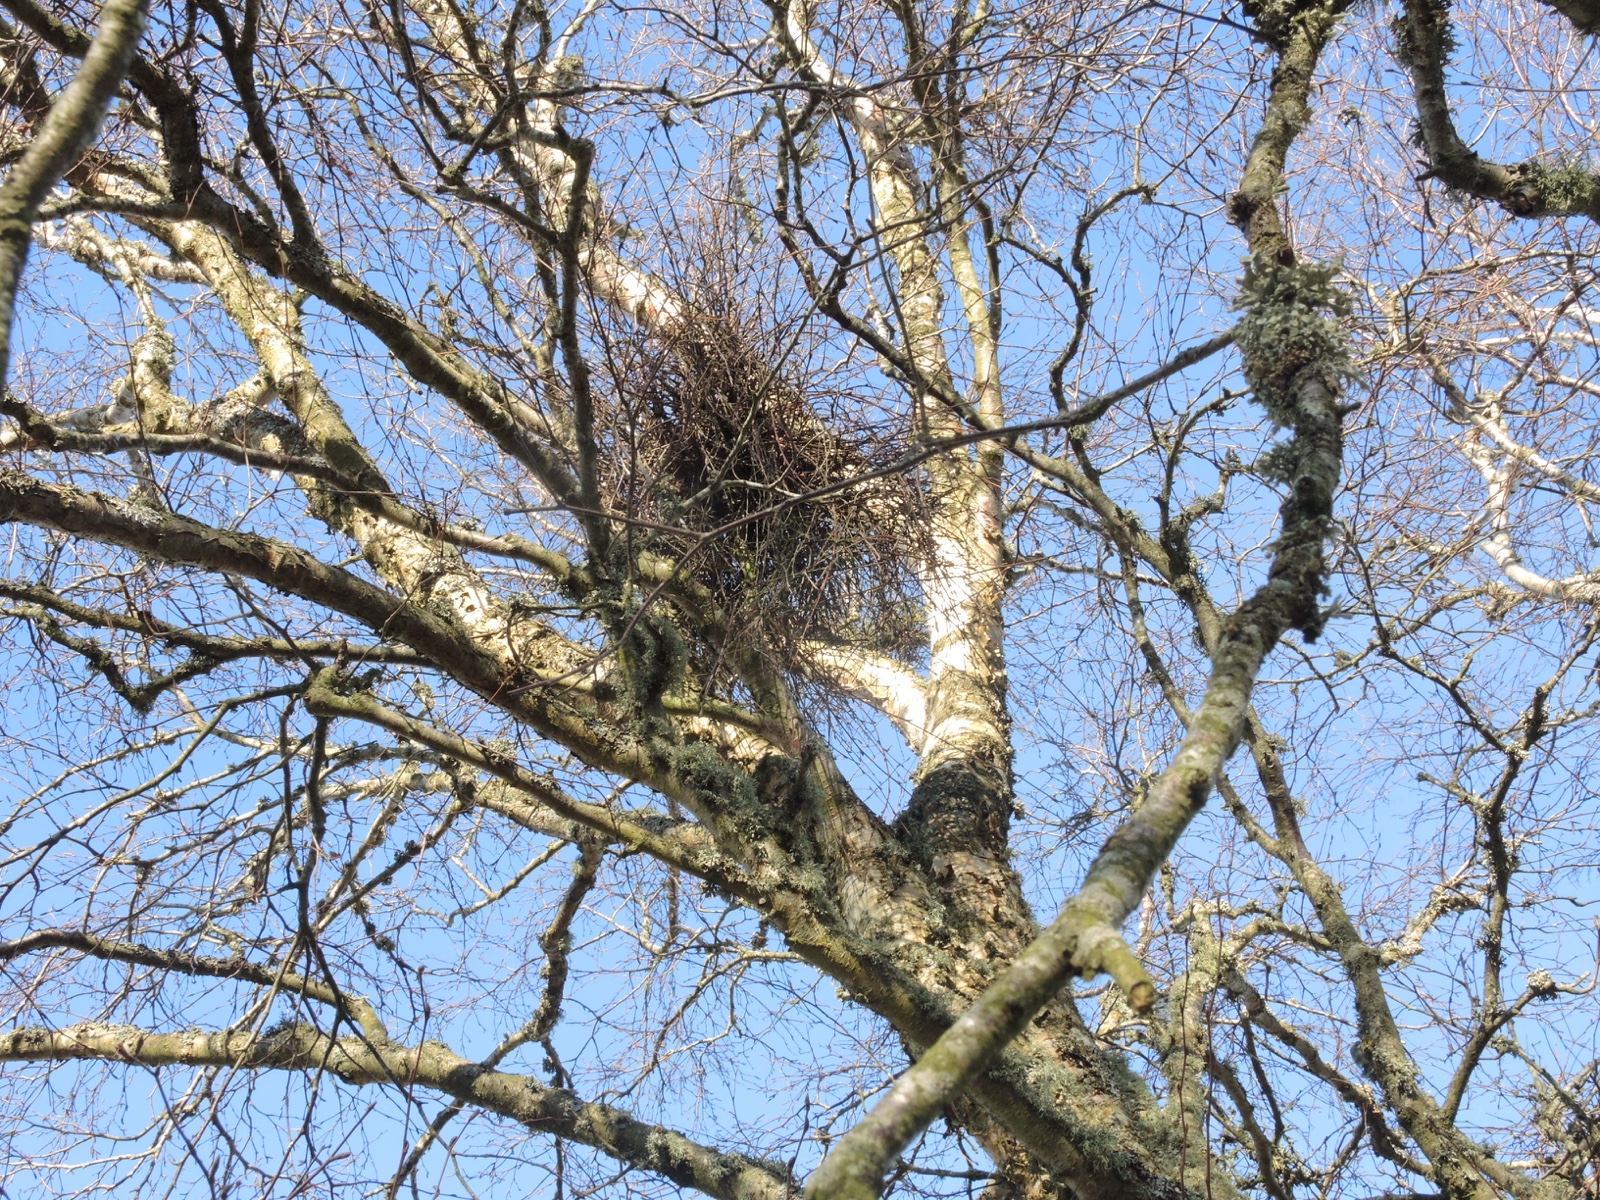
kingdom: Fungi
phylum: Ascomycota
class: Taphrinomycetes
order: Taphrinales
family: Taphrinaceae
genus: Taphrina
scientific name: Taphrina betulina
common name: hekse-sækdug
